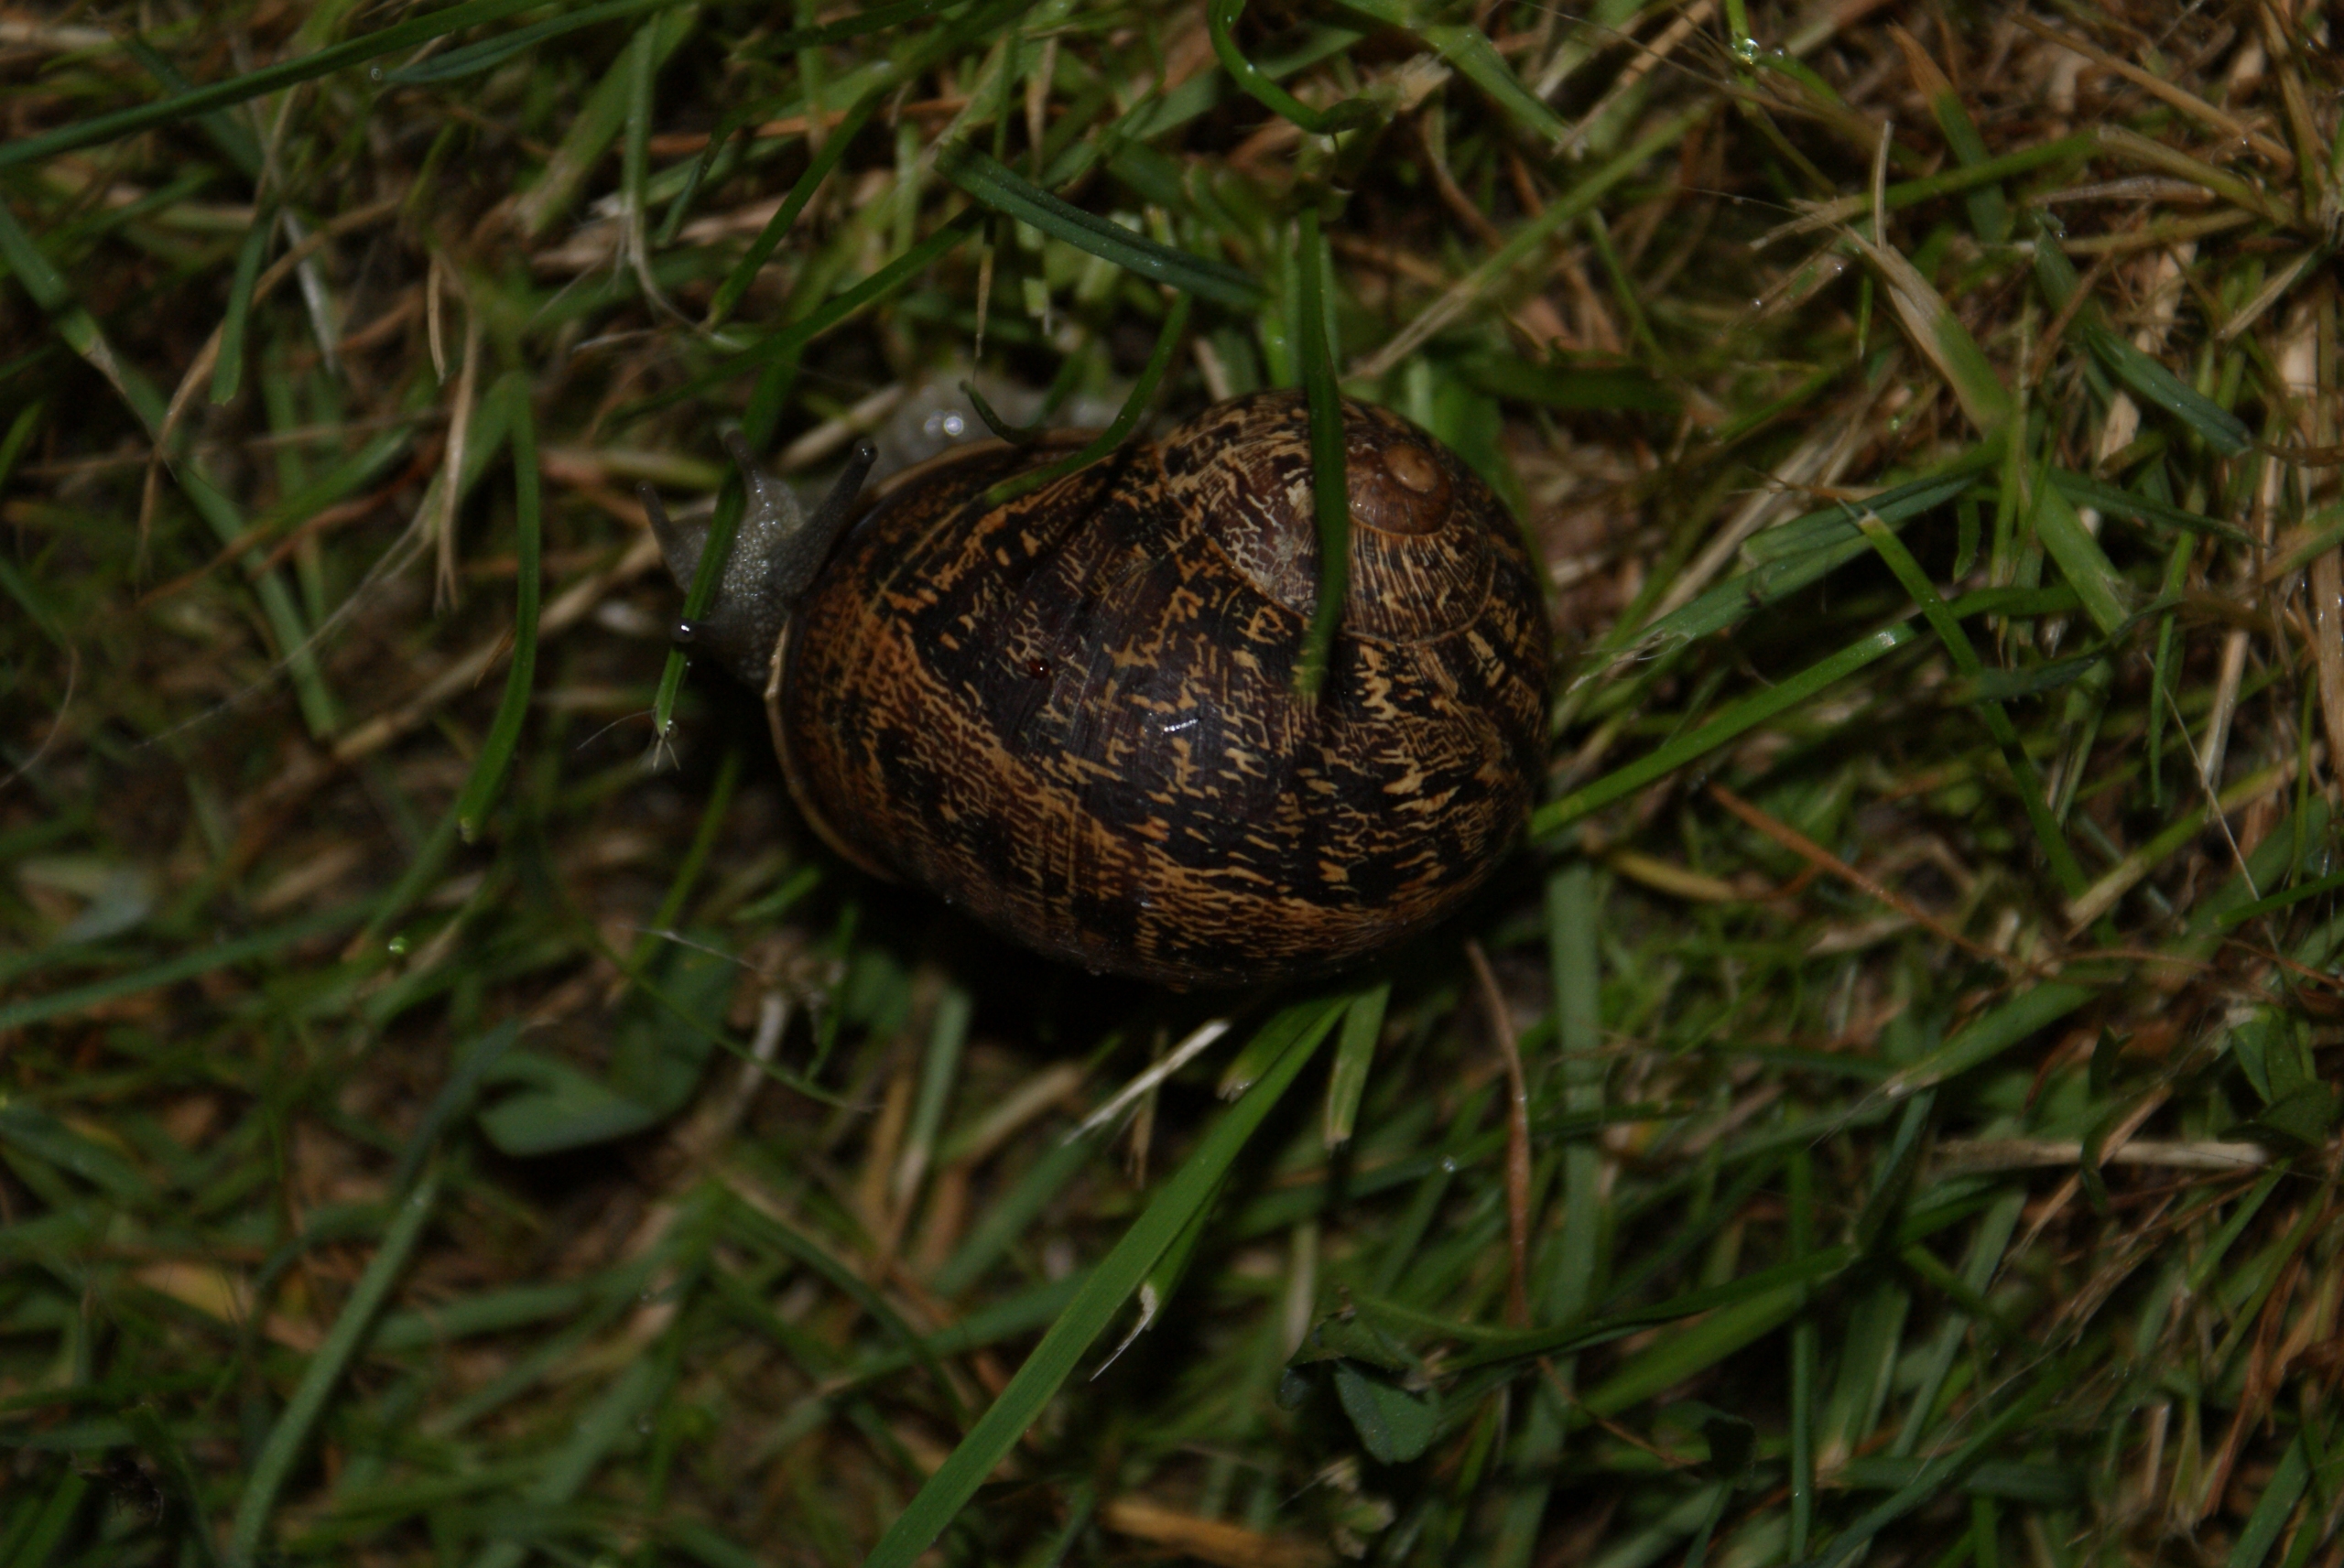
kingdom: Animalia
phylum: Mollusca
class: Gastropoda
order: Stylommatophora
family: Helicidae
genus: Cornu
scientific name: Cornu aspersum
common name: Plettet voldsnegl
